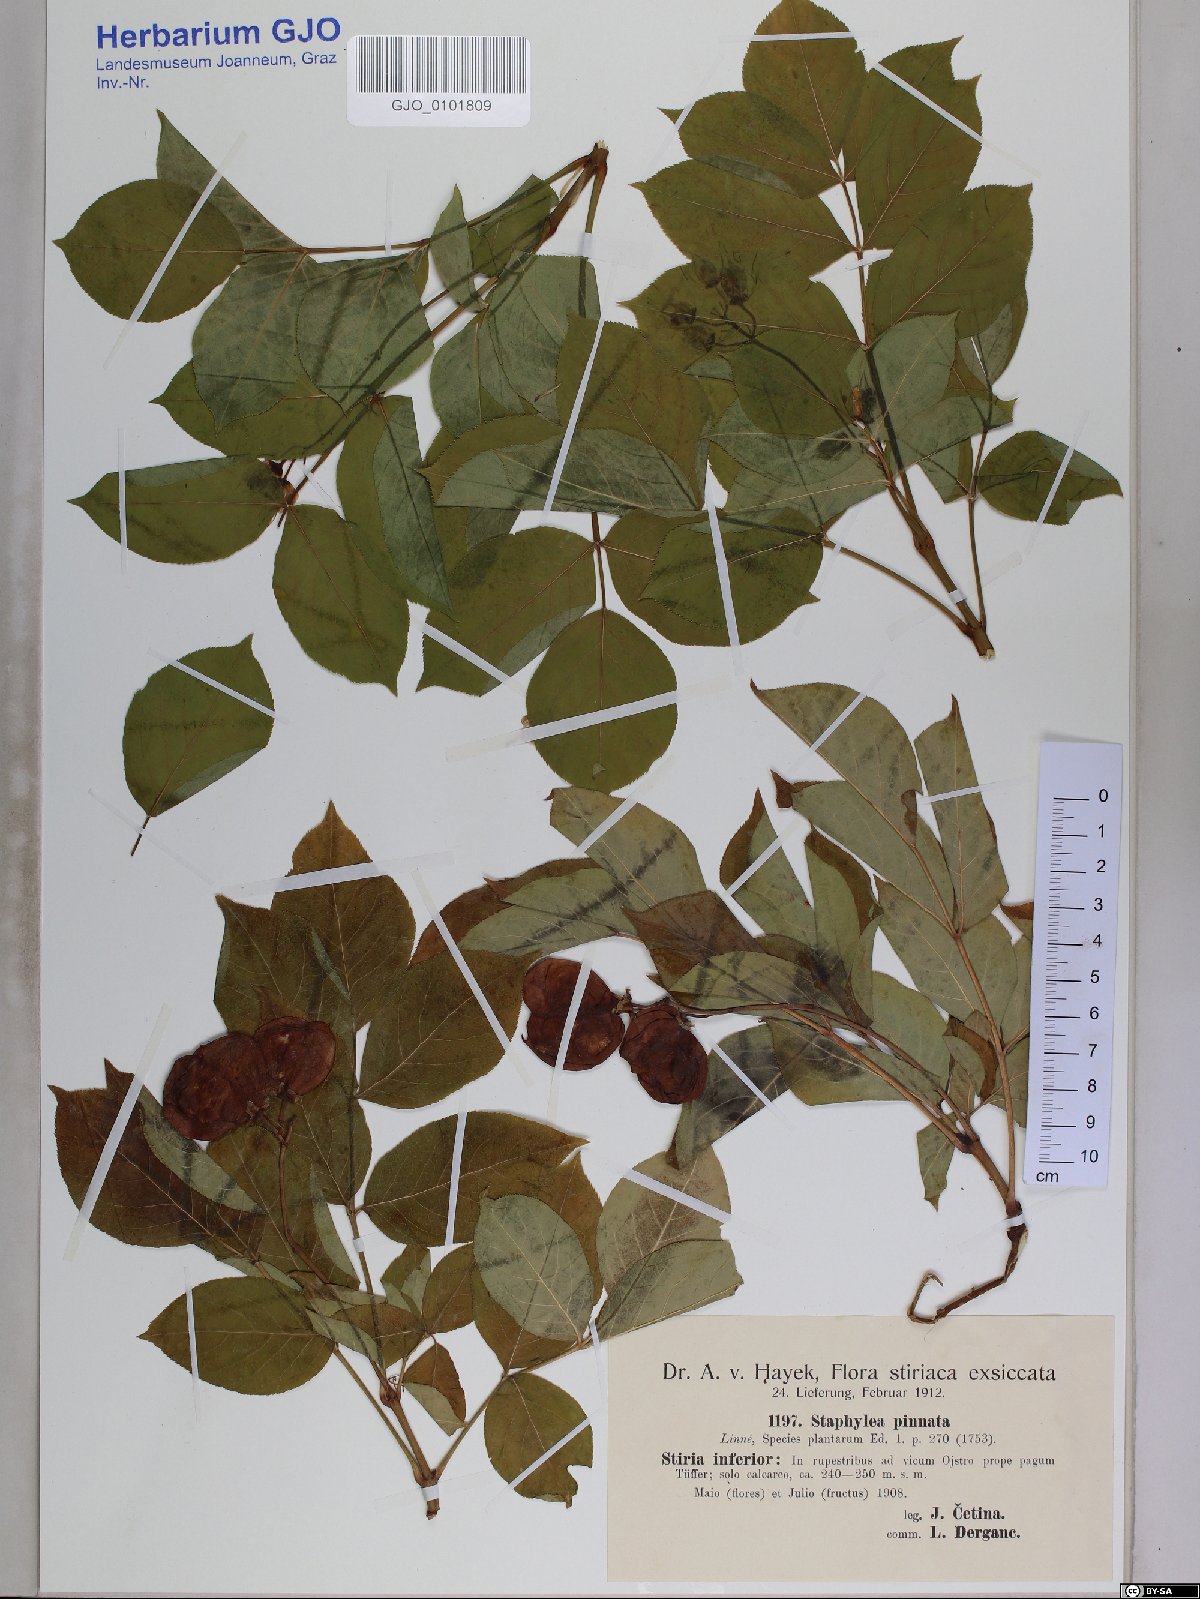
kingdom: Plantae
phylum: Tracheophyta
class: Magnoliopsida
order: Crossosomatales
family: Staphyleaceae
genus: Staphylea
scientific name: Staphylea pinnata
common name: Bladdernut
